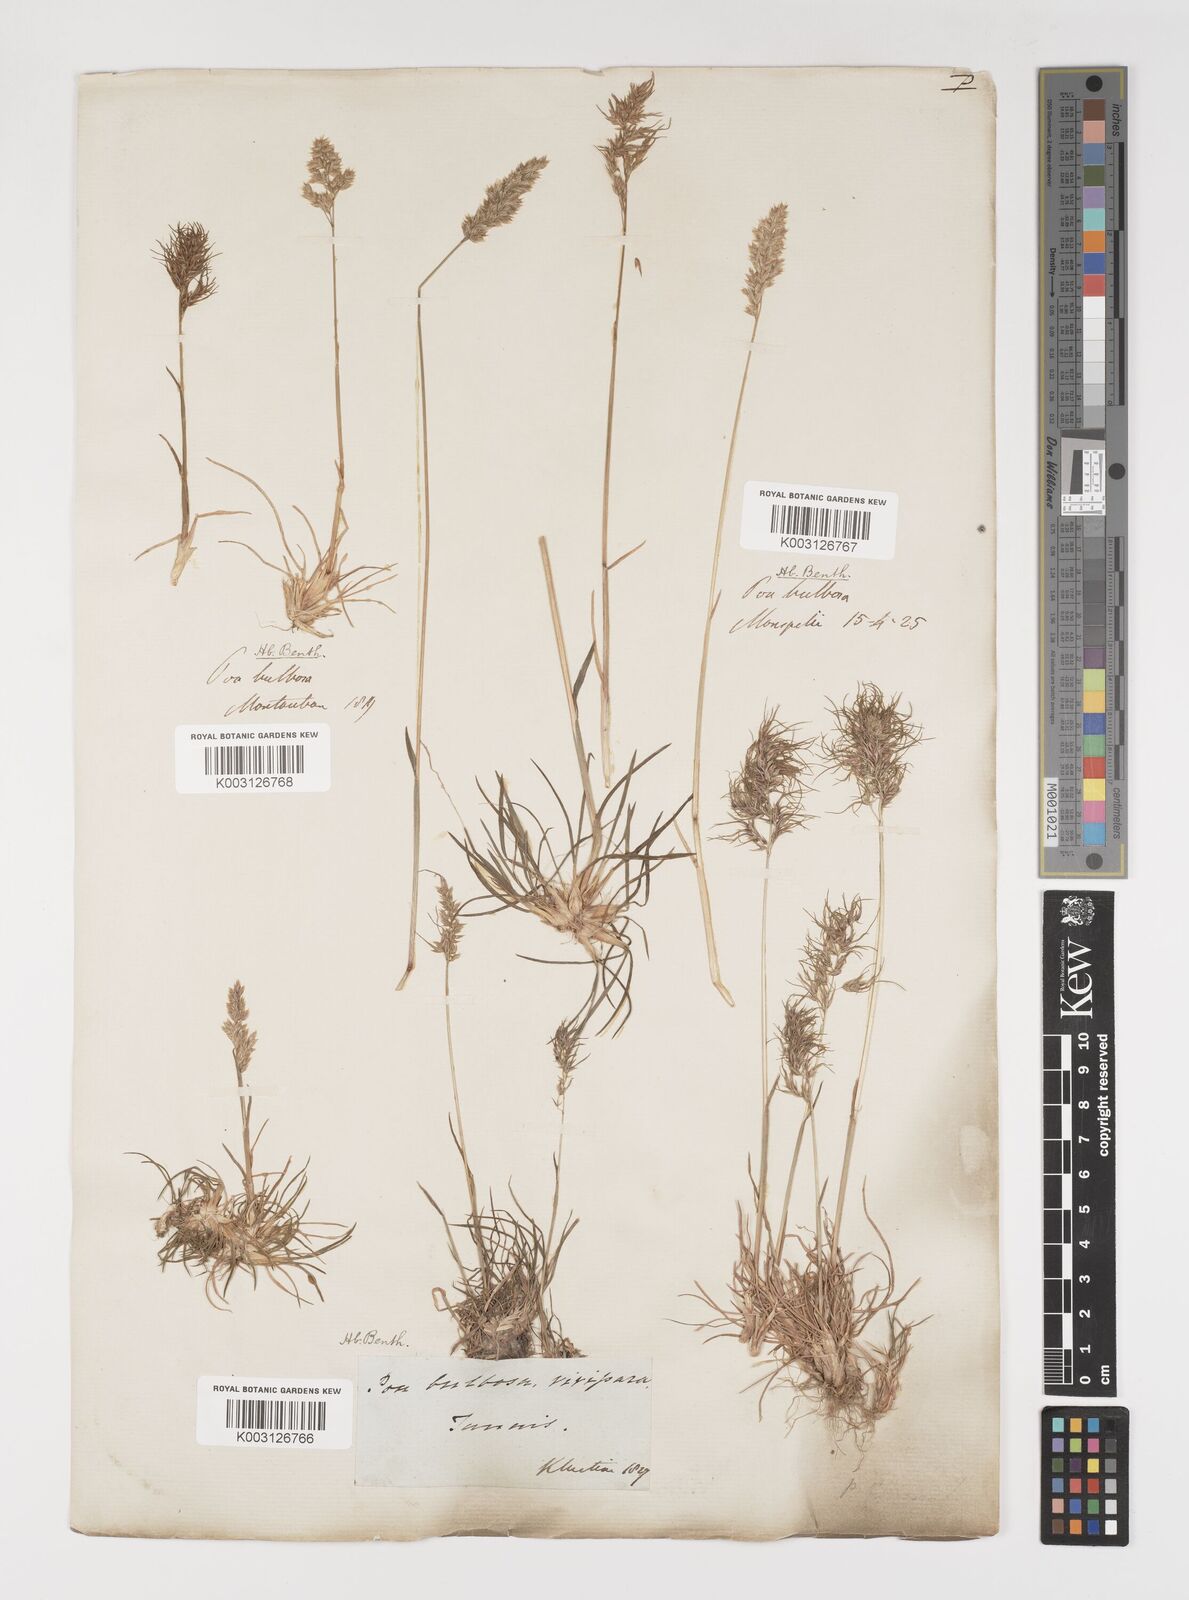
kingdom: Plantae
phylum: Tracheophyta
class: Liliopsida
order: Poales
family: Poaceae
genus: Poa
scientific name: Poa bulbosa
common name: Bulbous bluegrass
